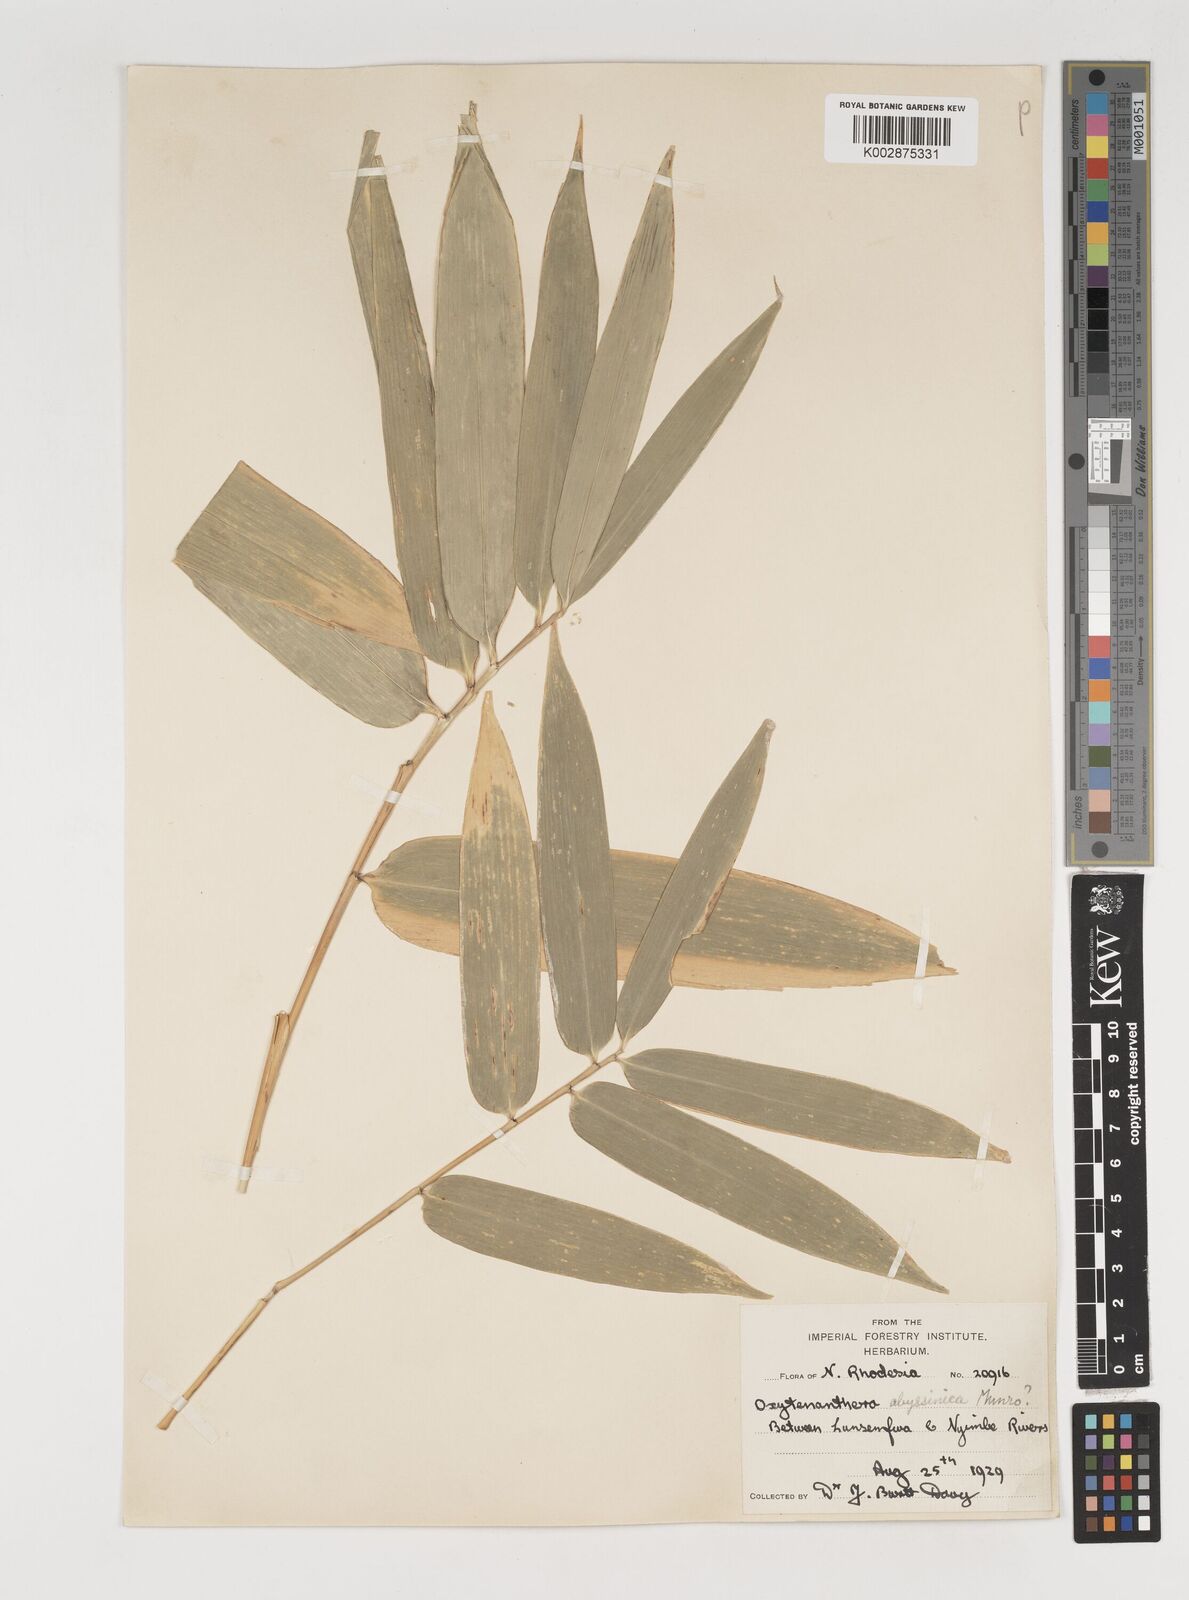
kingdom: Plantae
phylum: Tracheophyta
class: Liliopsida
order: Poales
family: Poaceae
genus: Oxytenanthera
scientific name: Oxytenanthera abyssinica
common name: Wine bamboo
